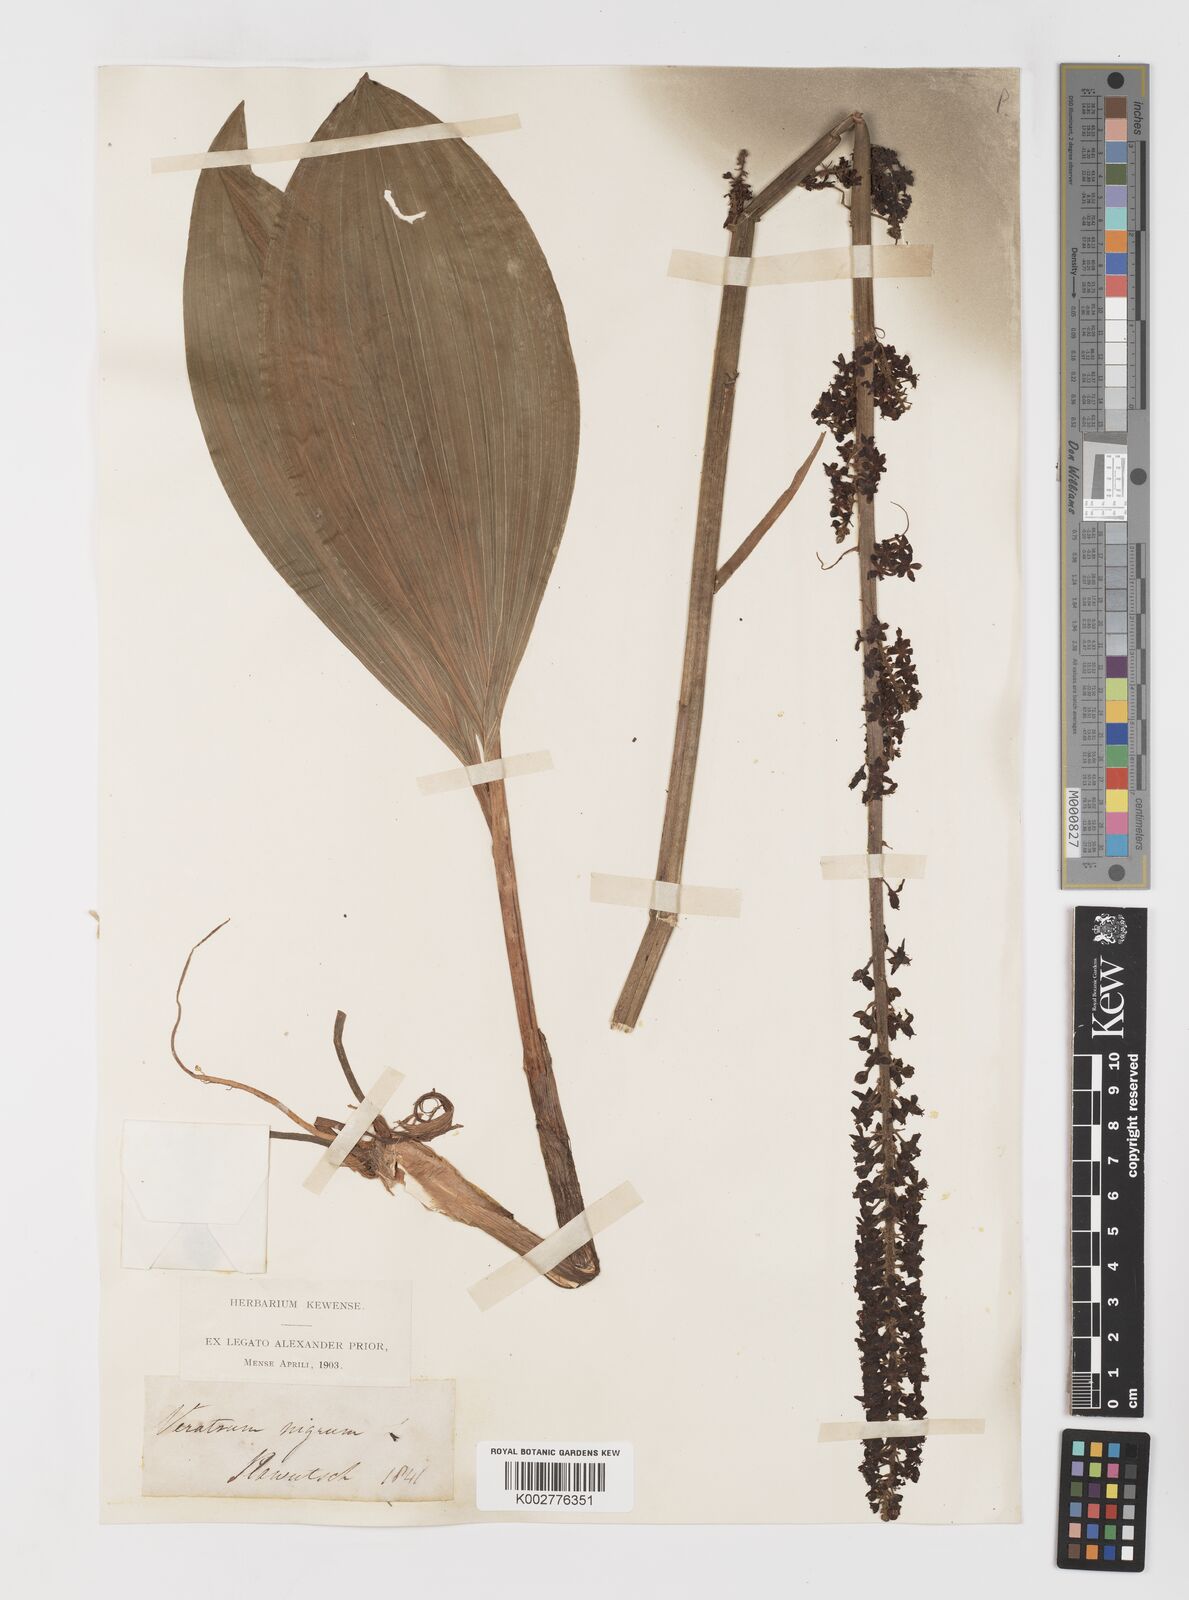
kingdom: Plantae
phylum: Tracheophyta
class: Liliopsida
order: Liliales
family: Melanthiaceae
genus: Veratrum
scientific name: Veratrum nigrum
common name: Black veratrum
